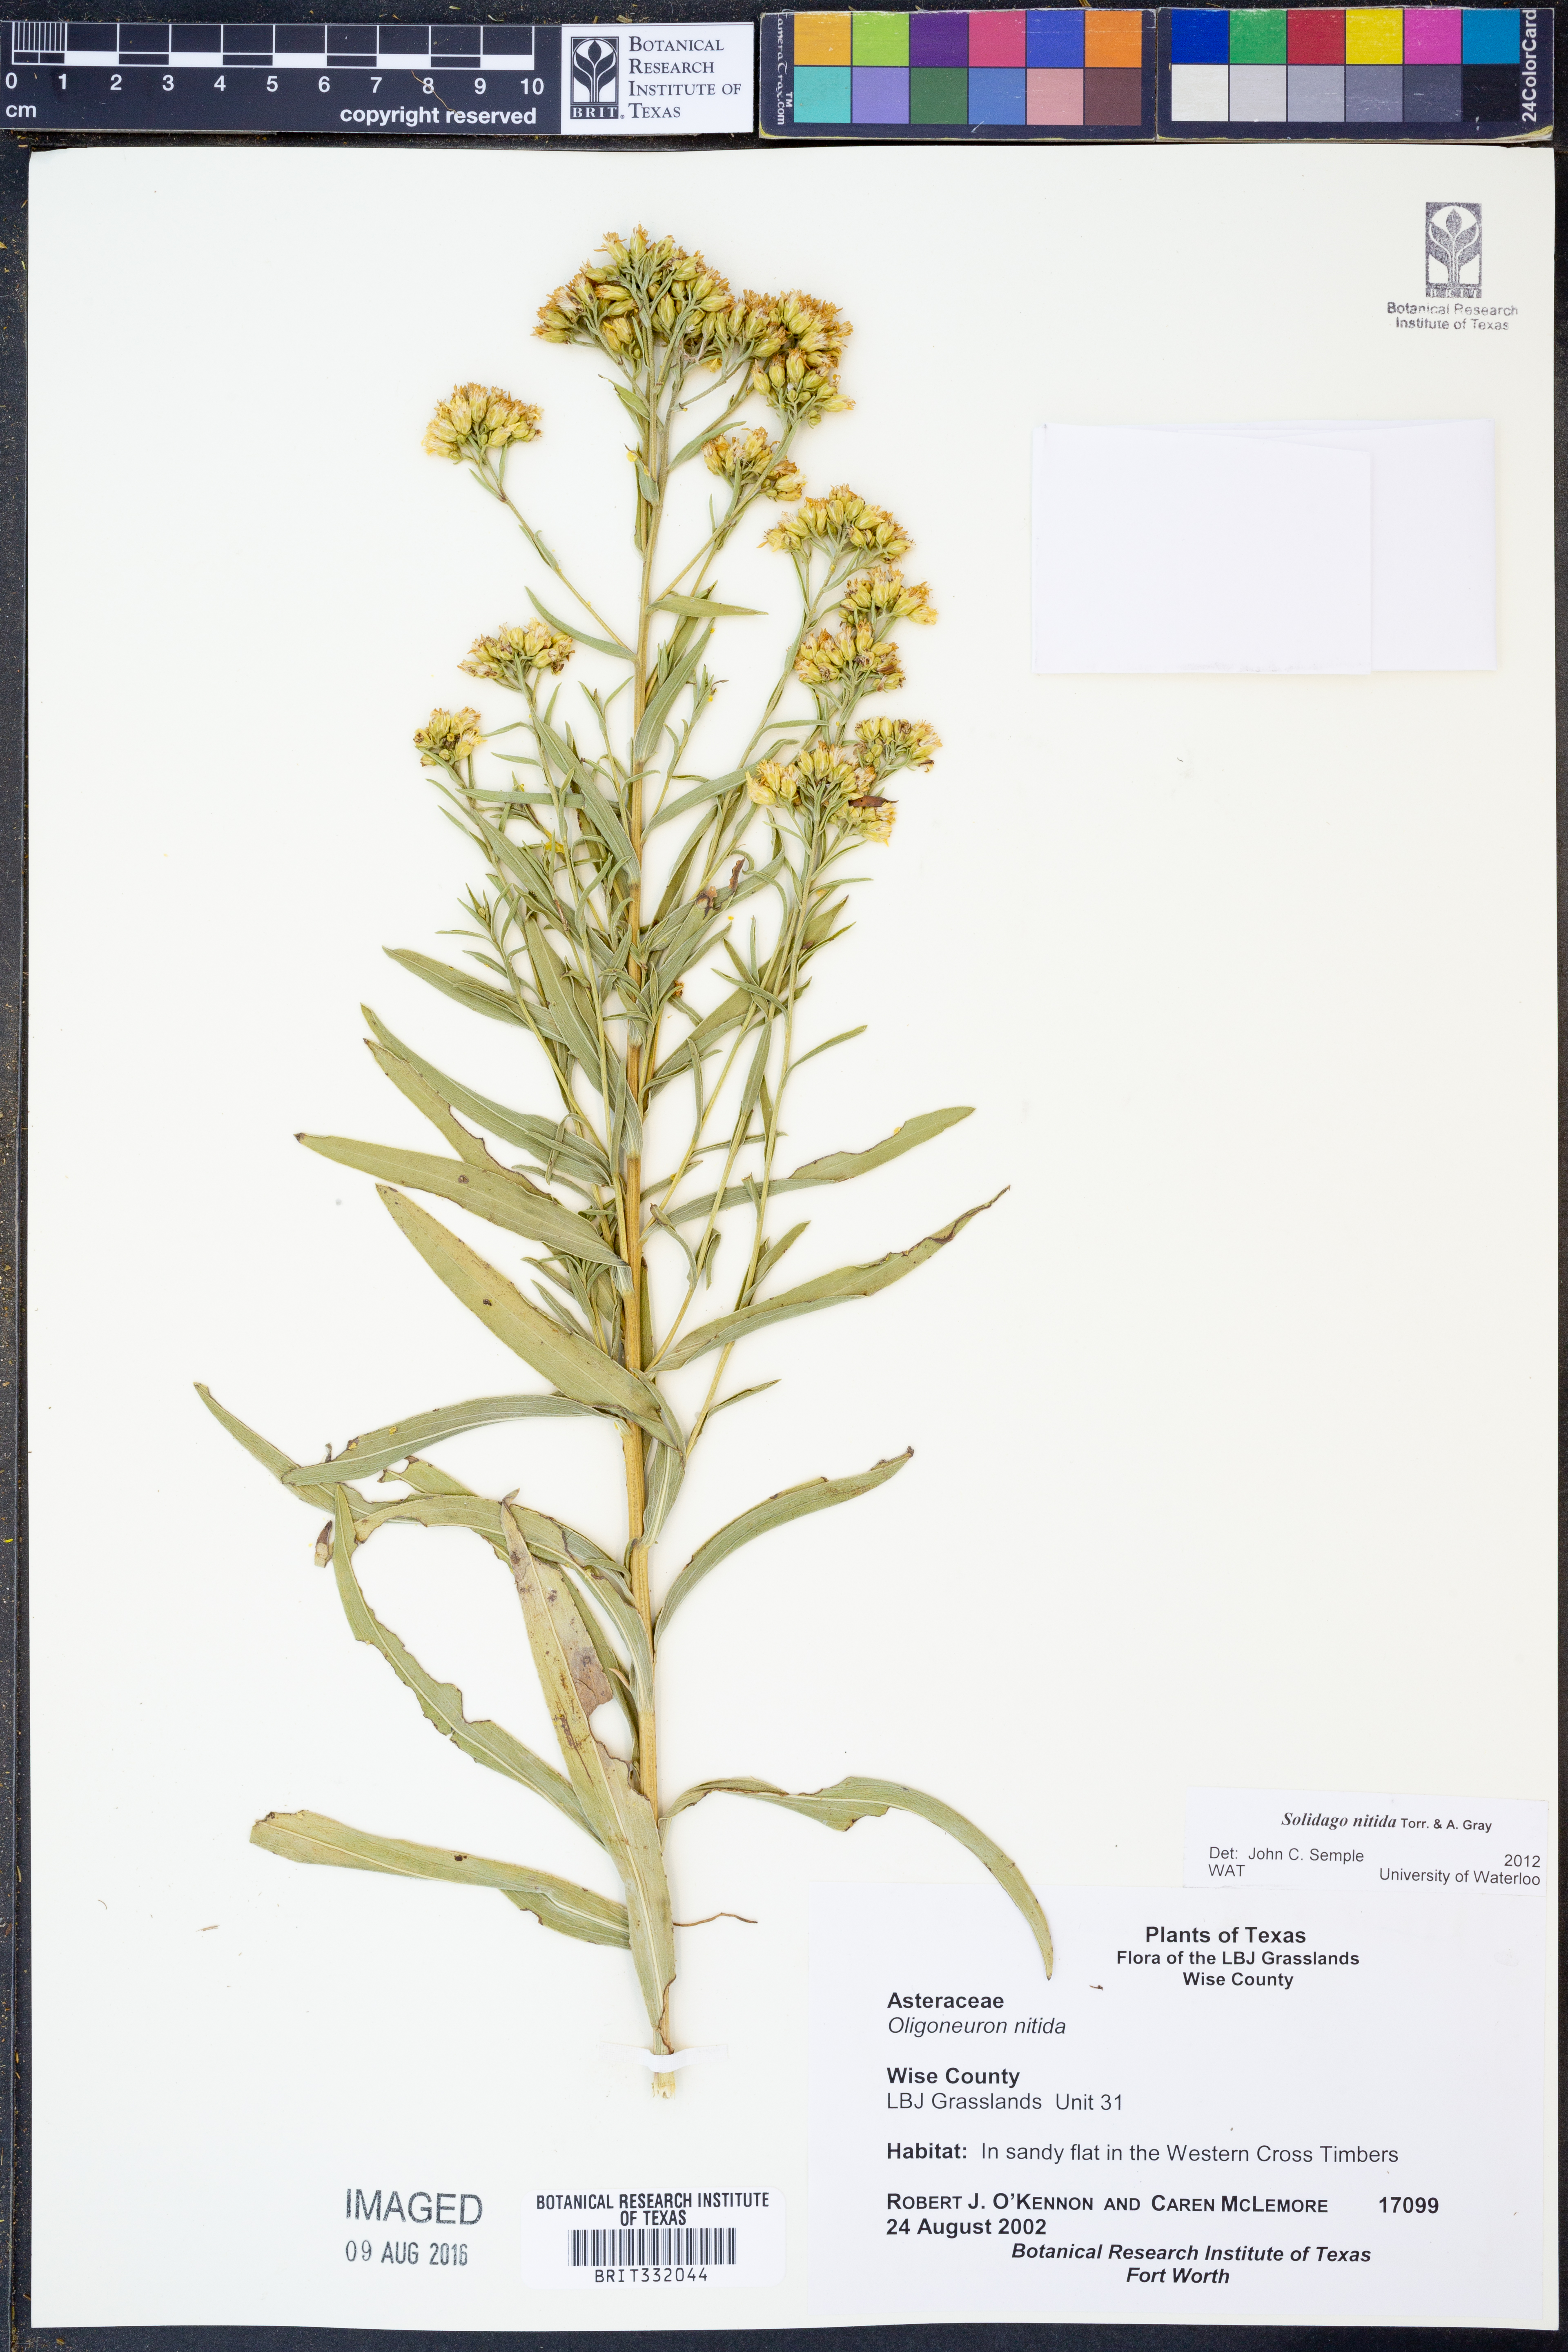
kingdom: Plantae
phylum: Tracheophyta
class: Magnoliopsida
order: Asterales
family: Asteraceae
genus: Solidago
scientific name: Solidago nitida
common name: Shiny goldenrod
